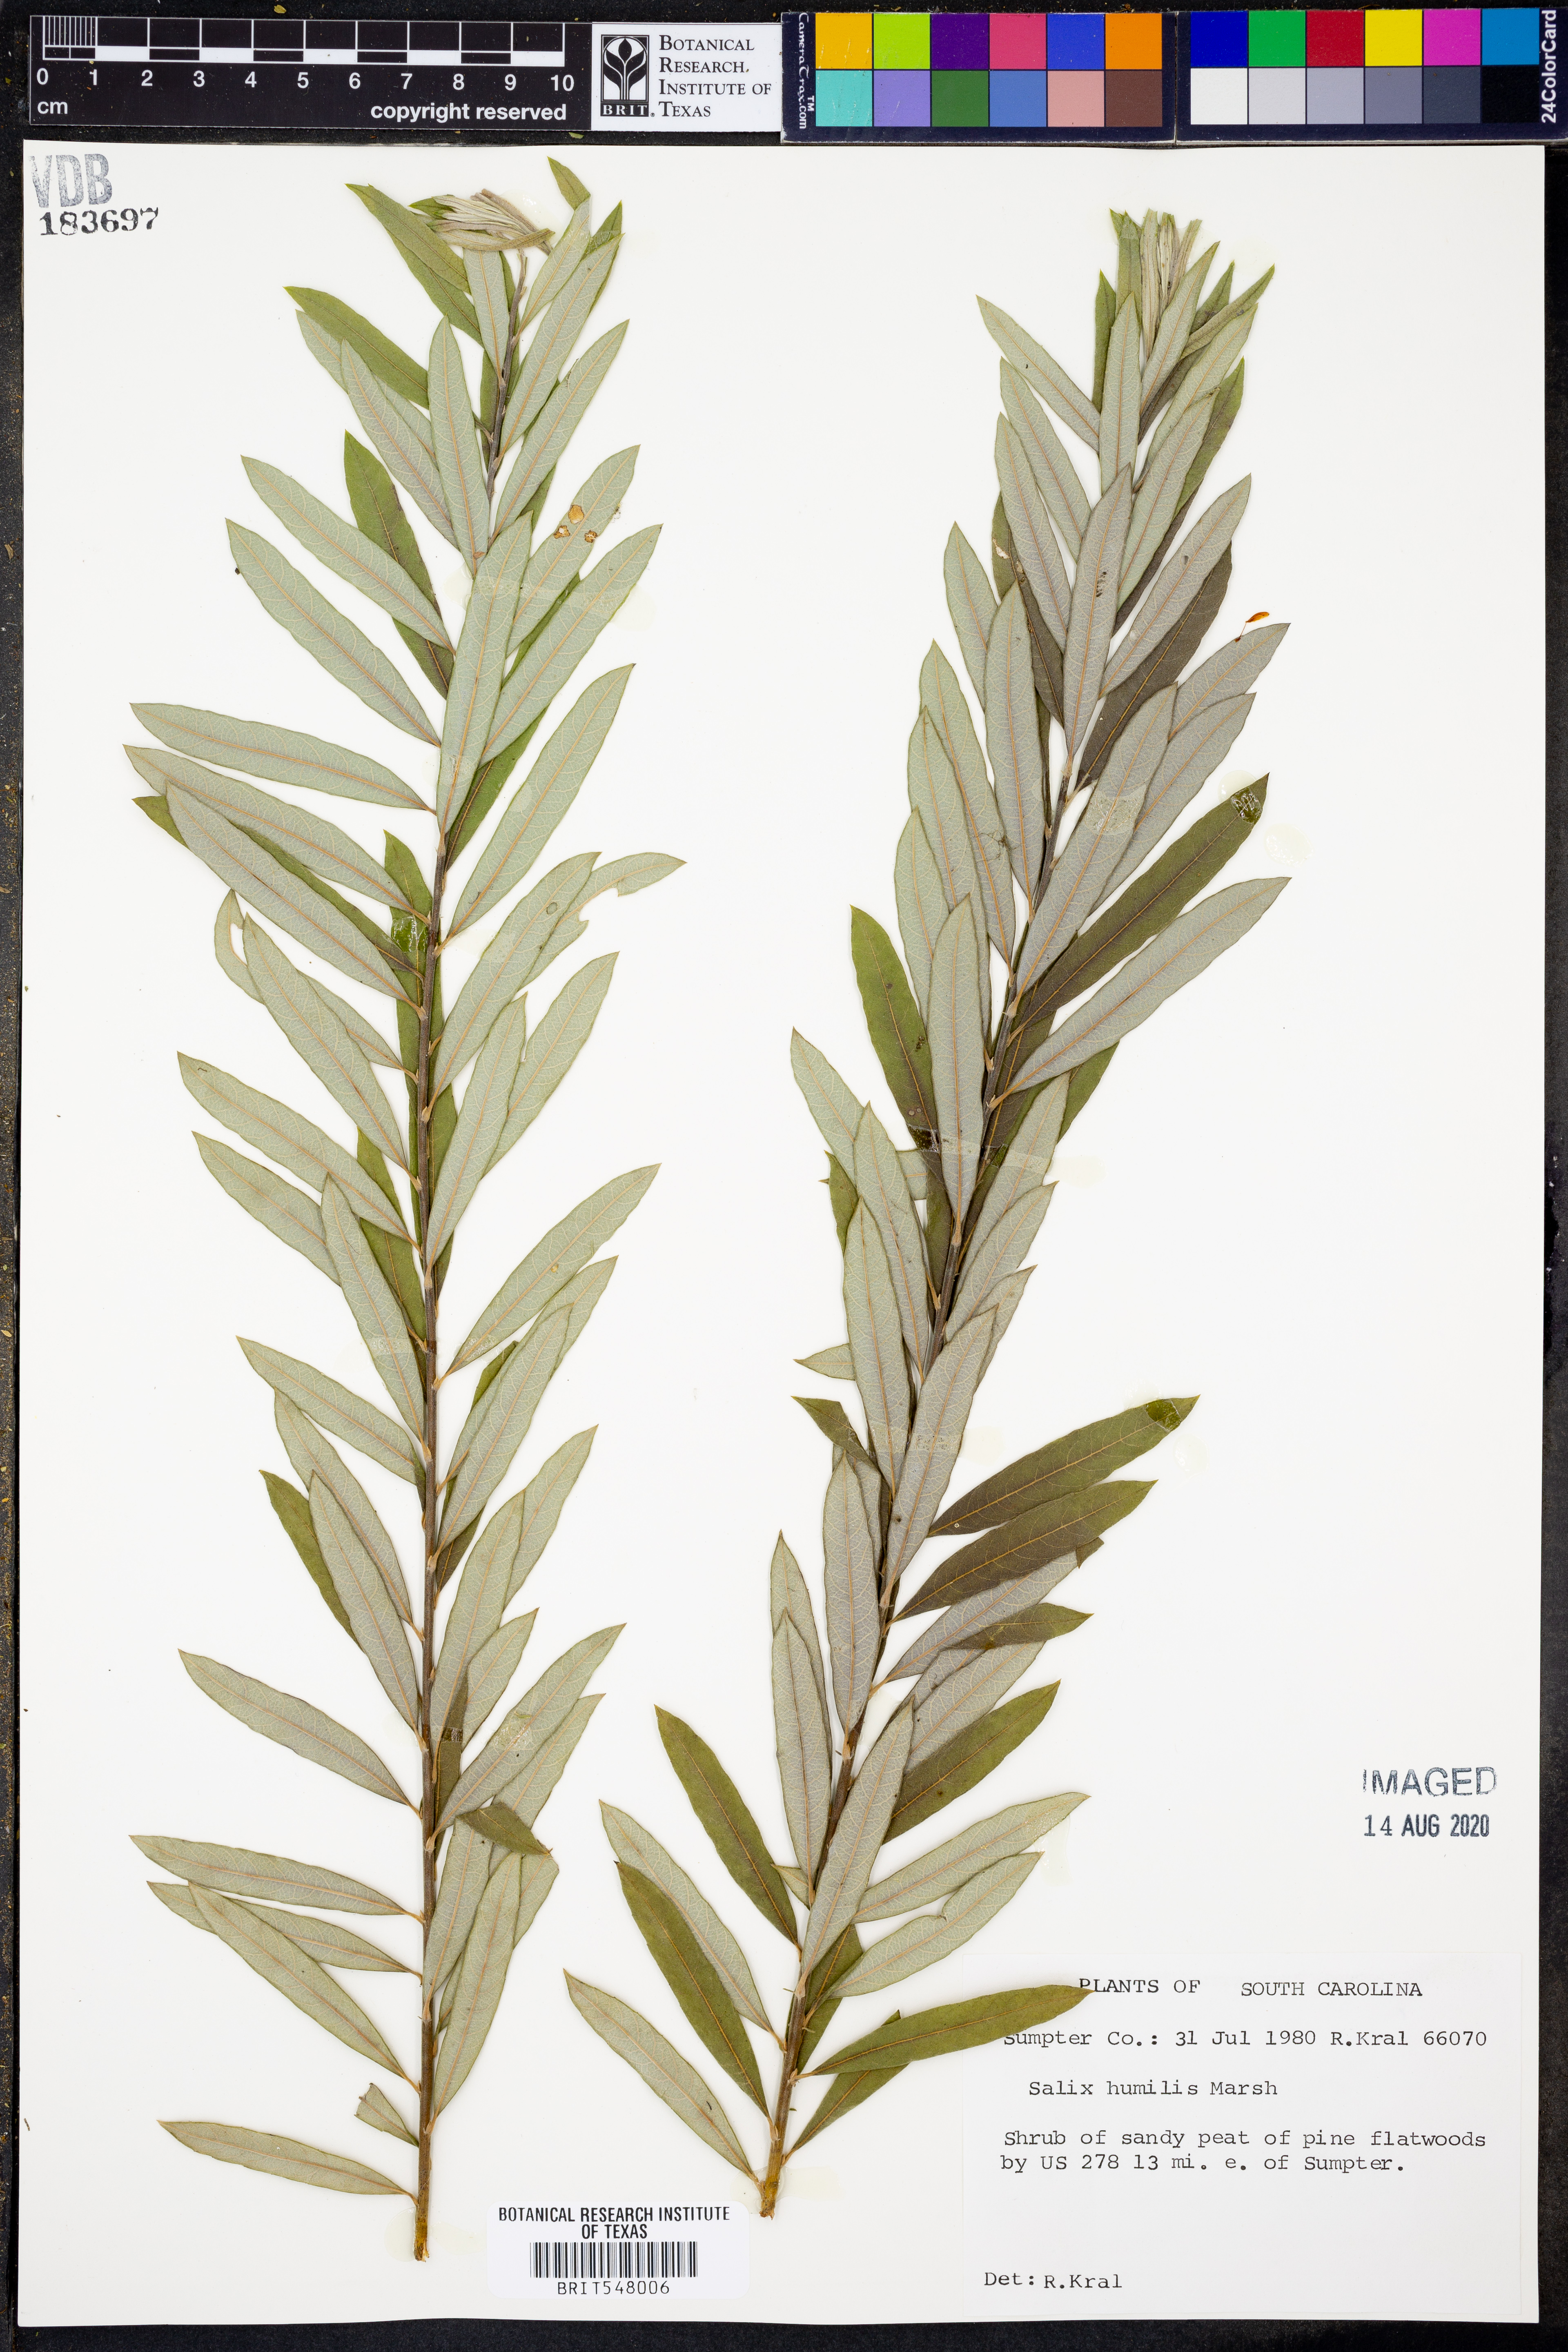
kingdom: Plantae
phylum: Tracheophyta
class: Magnoliopsida
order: Malpighiales
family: Salicaceae
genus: Salix
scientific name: Salix humilis
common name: Prairie willow
